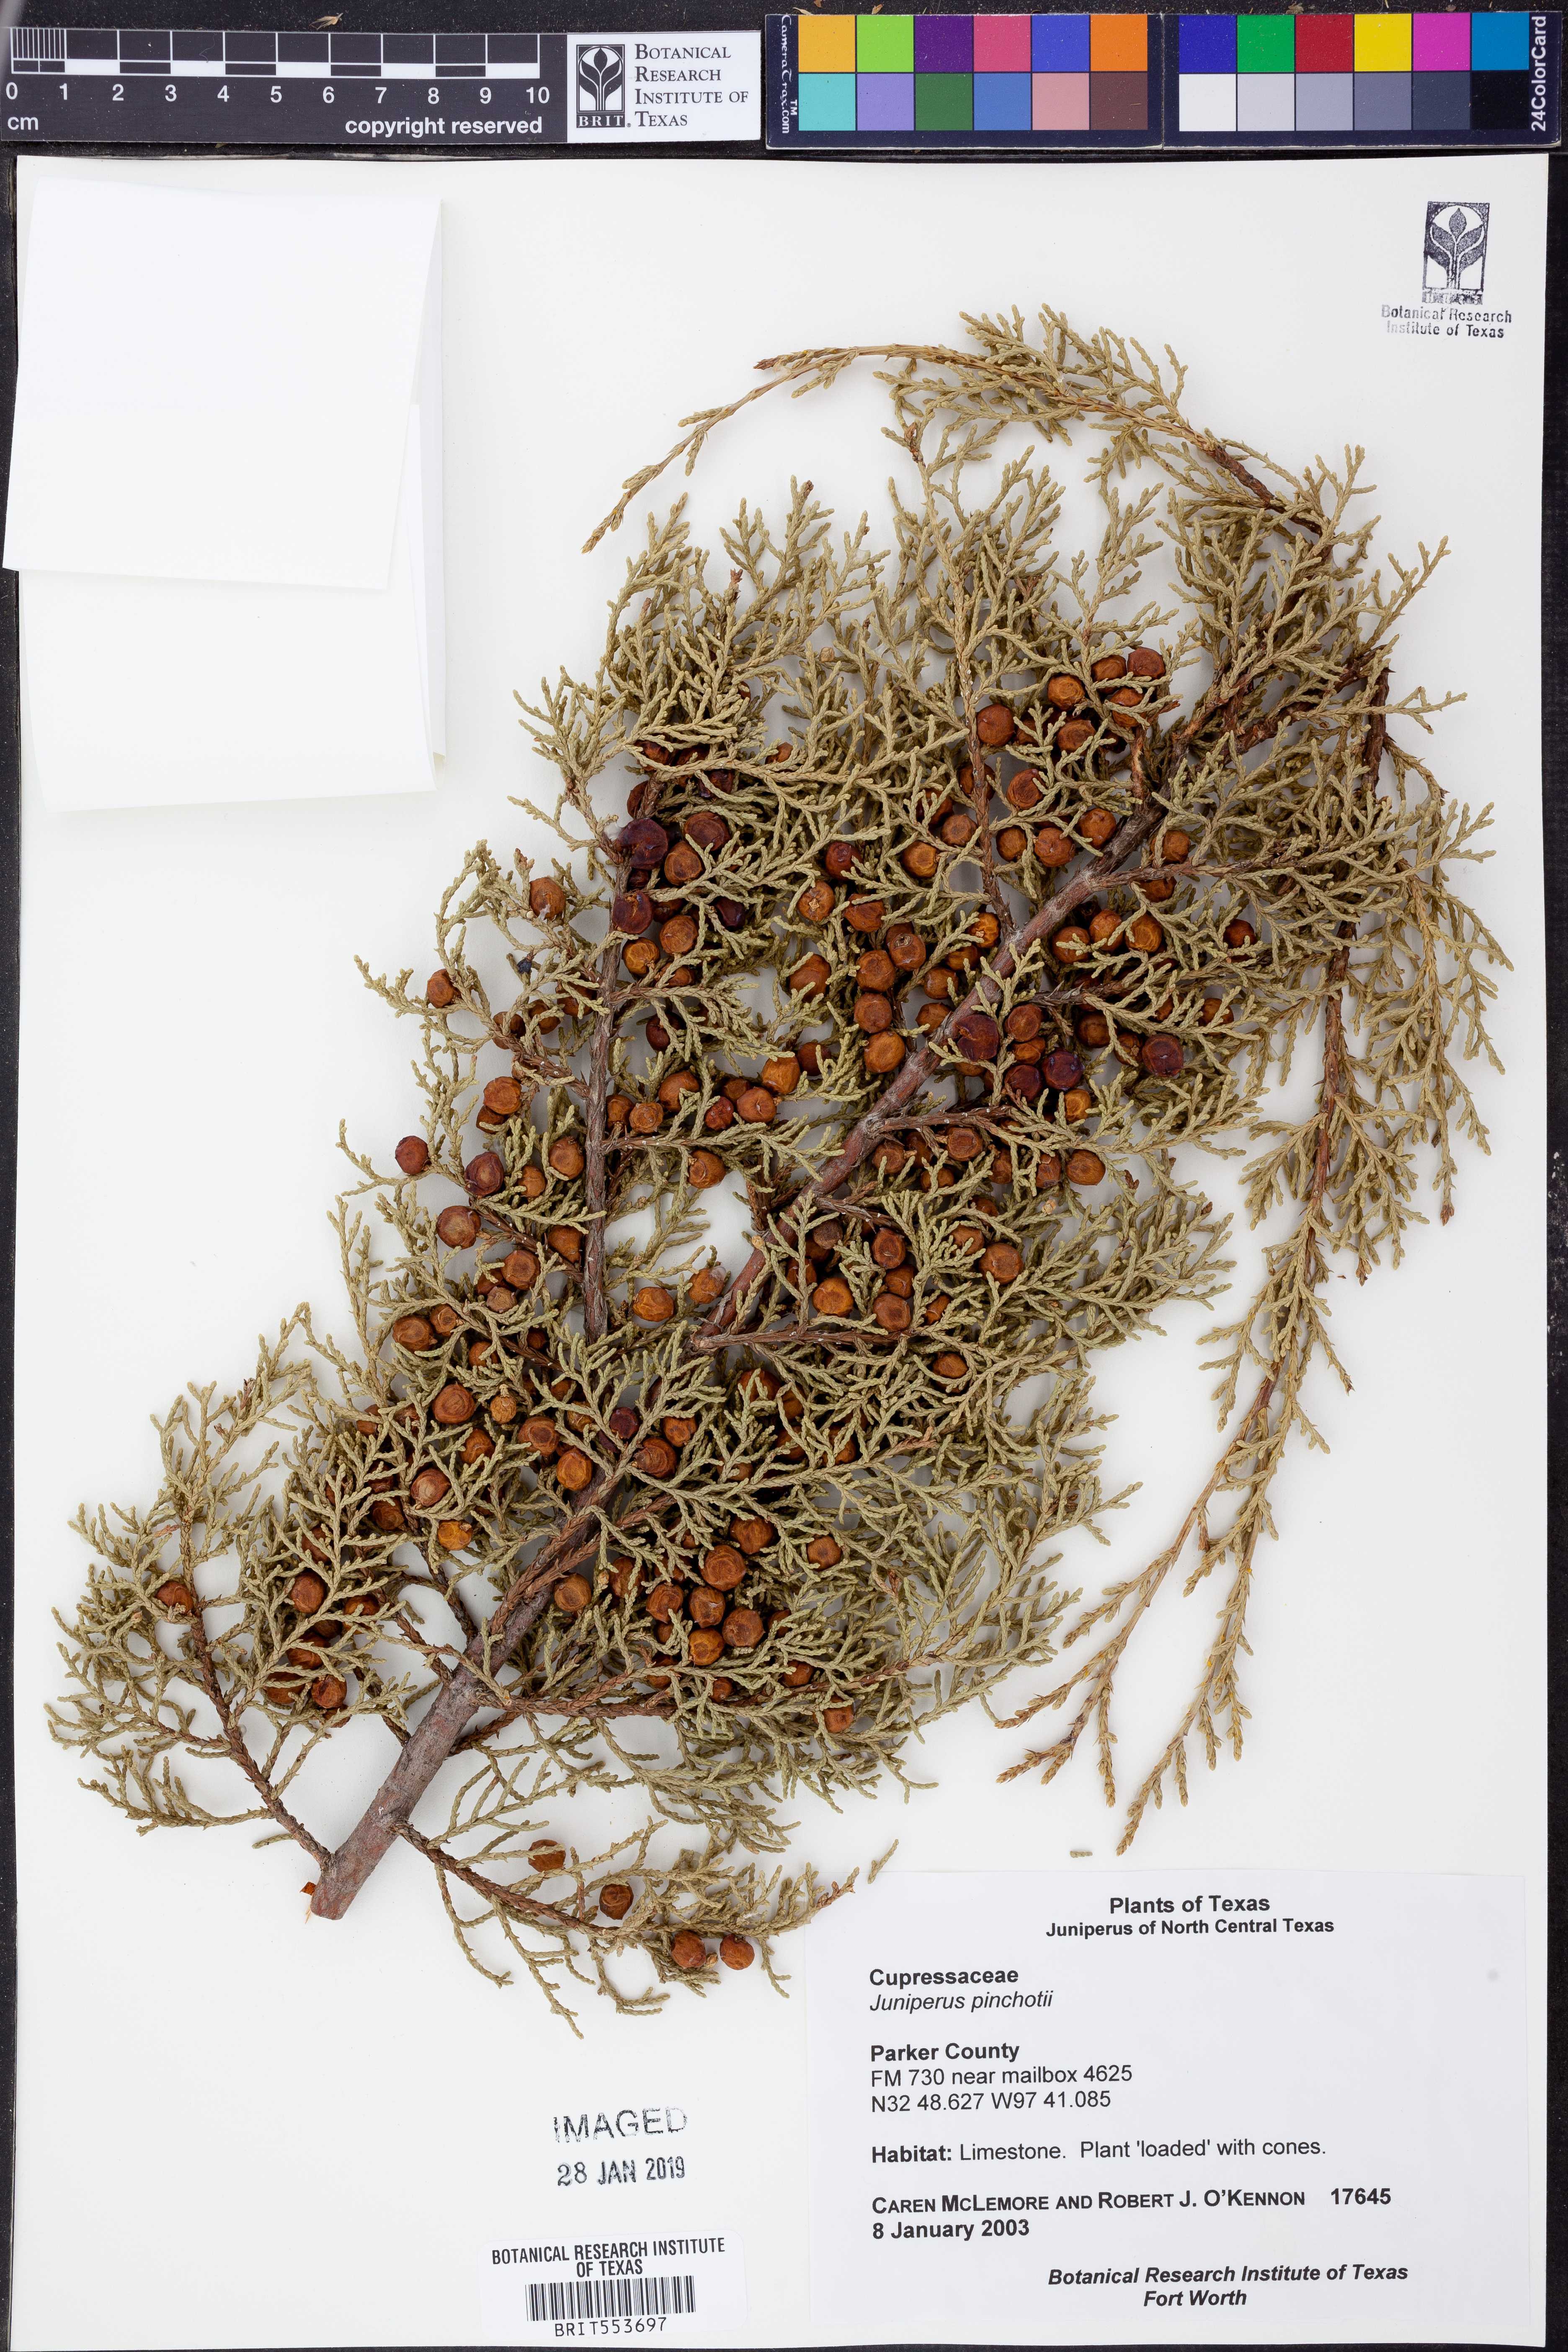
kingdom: Plantae
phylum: Tracheophyta
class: Pinopsida
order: Pinales
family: Cupressaceae
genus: Juniperus
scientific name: Juniperus pinchotii
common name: Pinchot juniper
